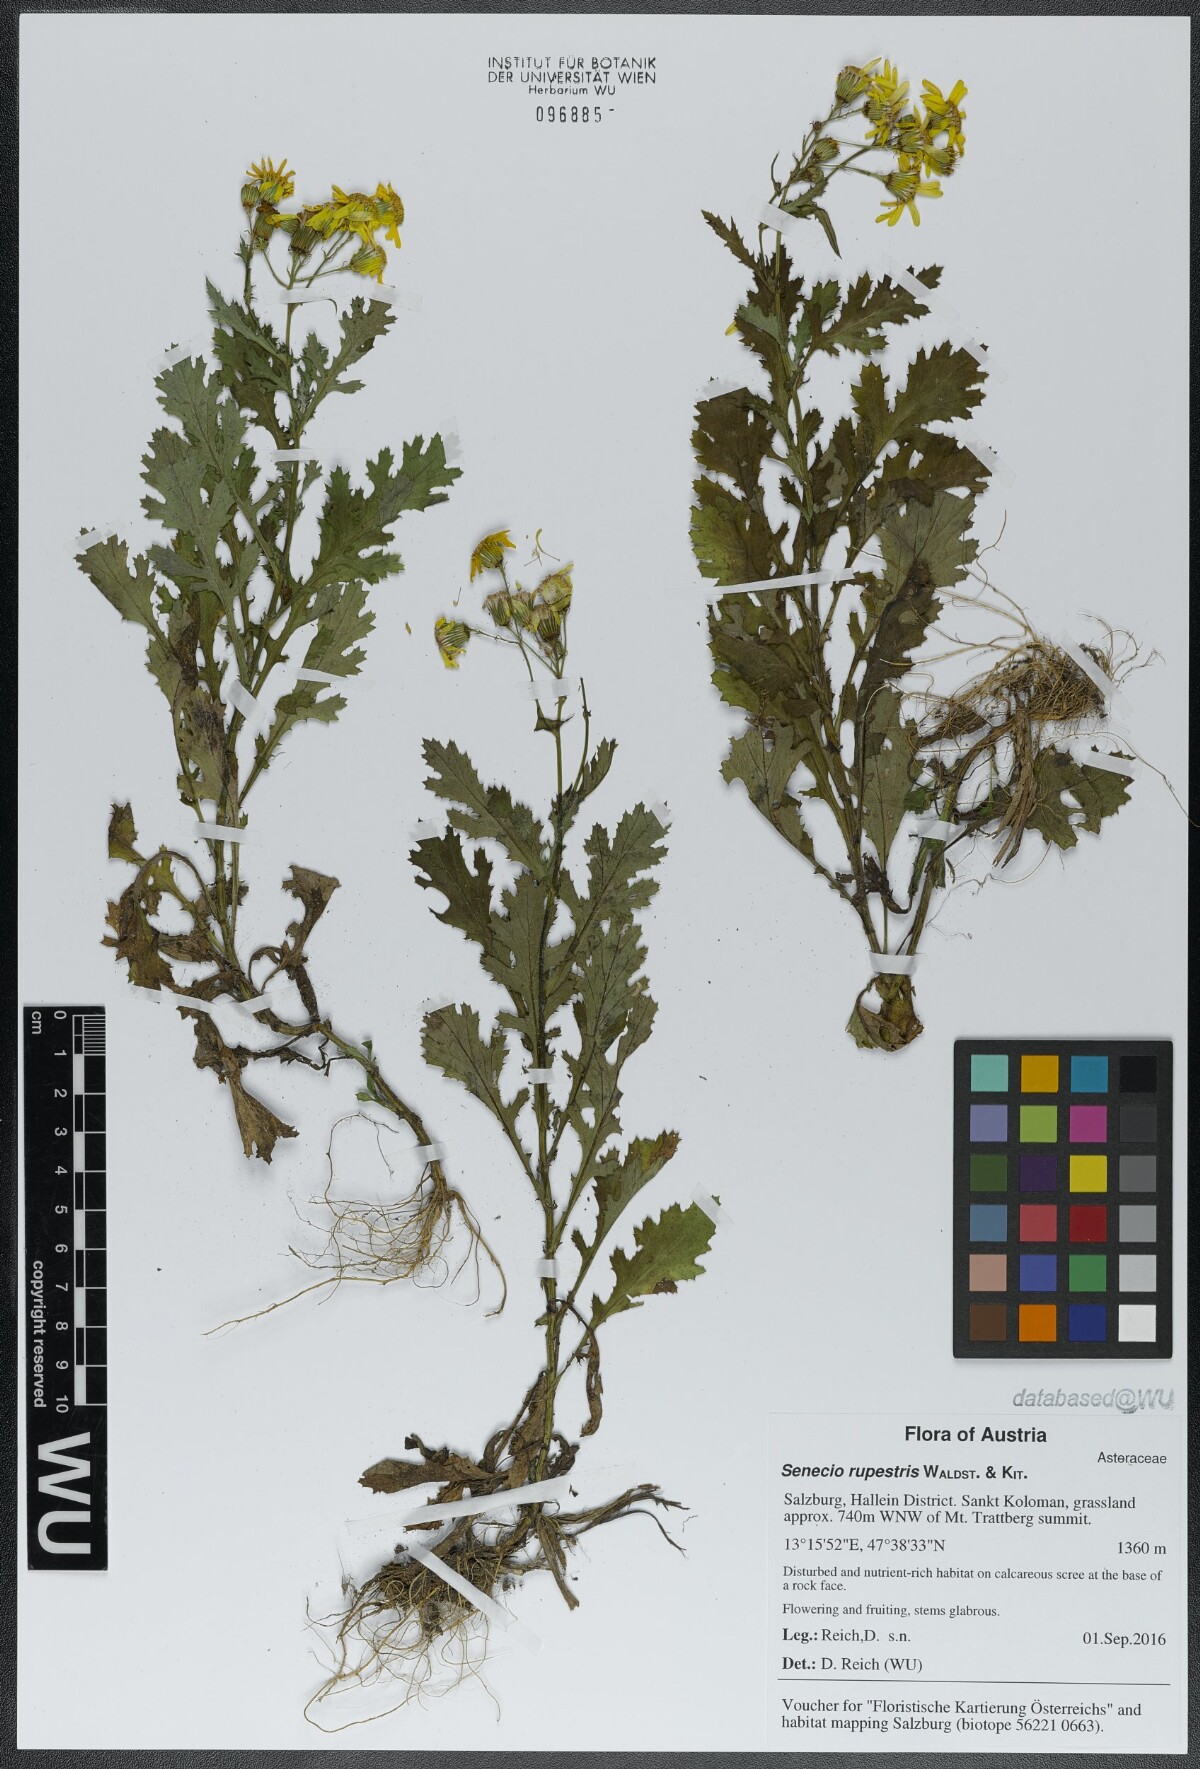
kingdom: Plantae
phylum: Tracheophyta
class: Magnoliopsida
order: Asterales
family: Asteraceae
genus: Senecio
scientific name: Senecio rupestris
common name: Rock ragwort
